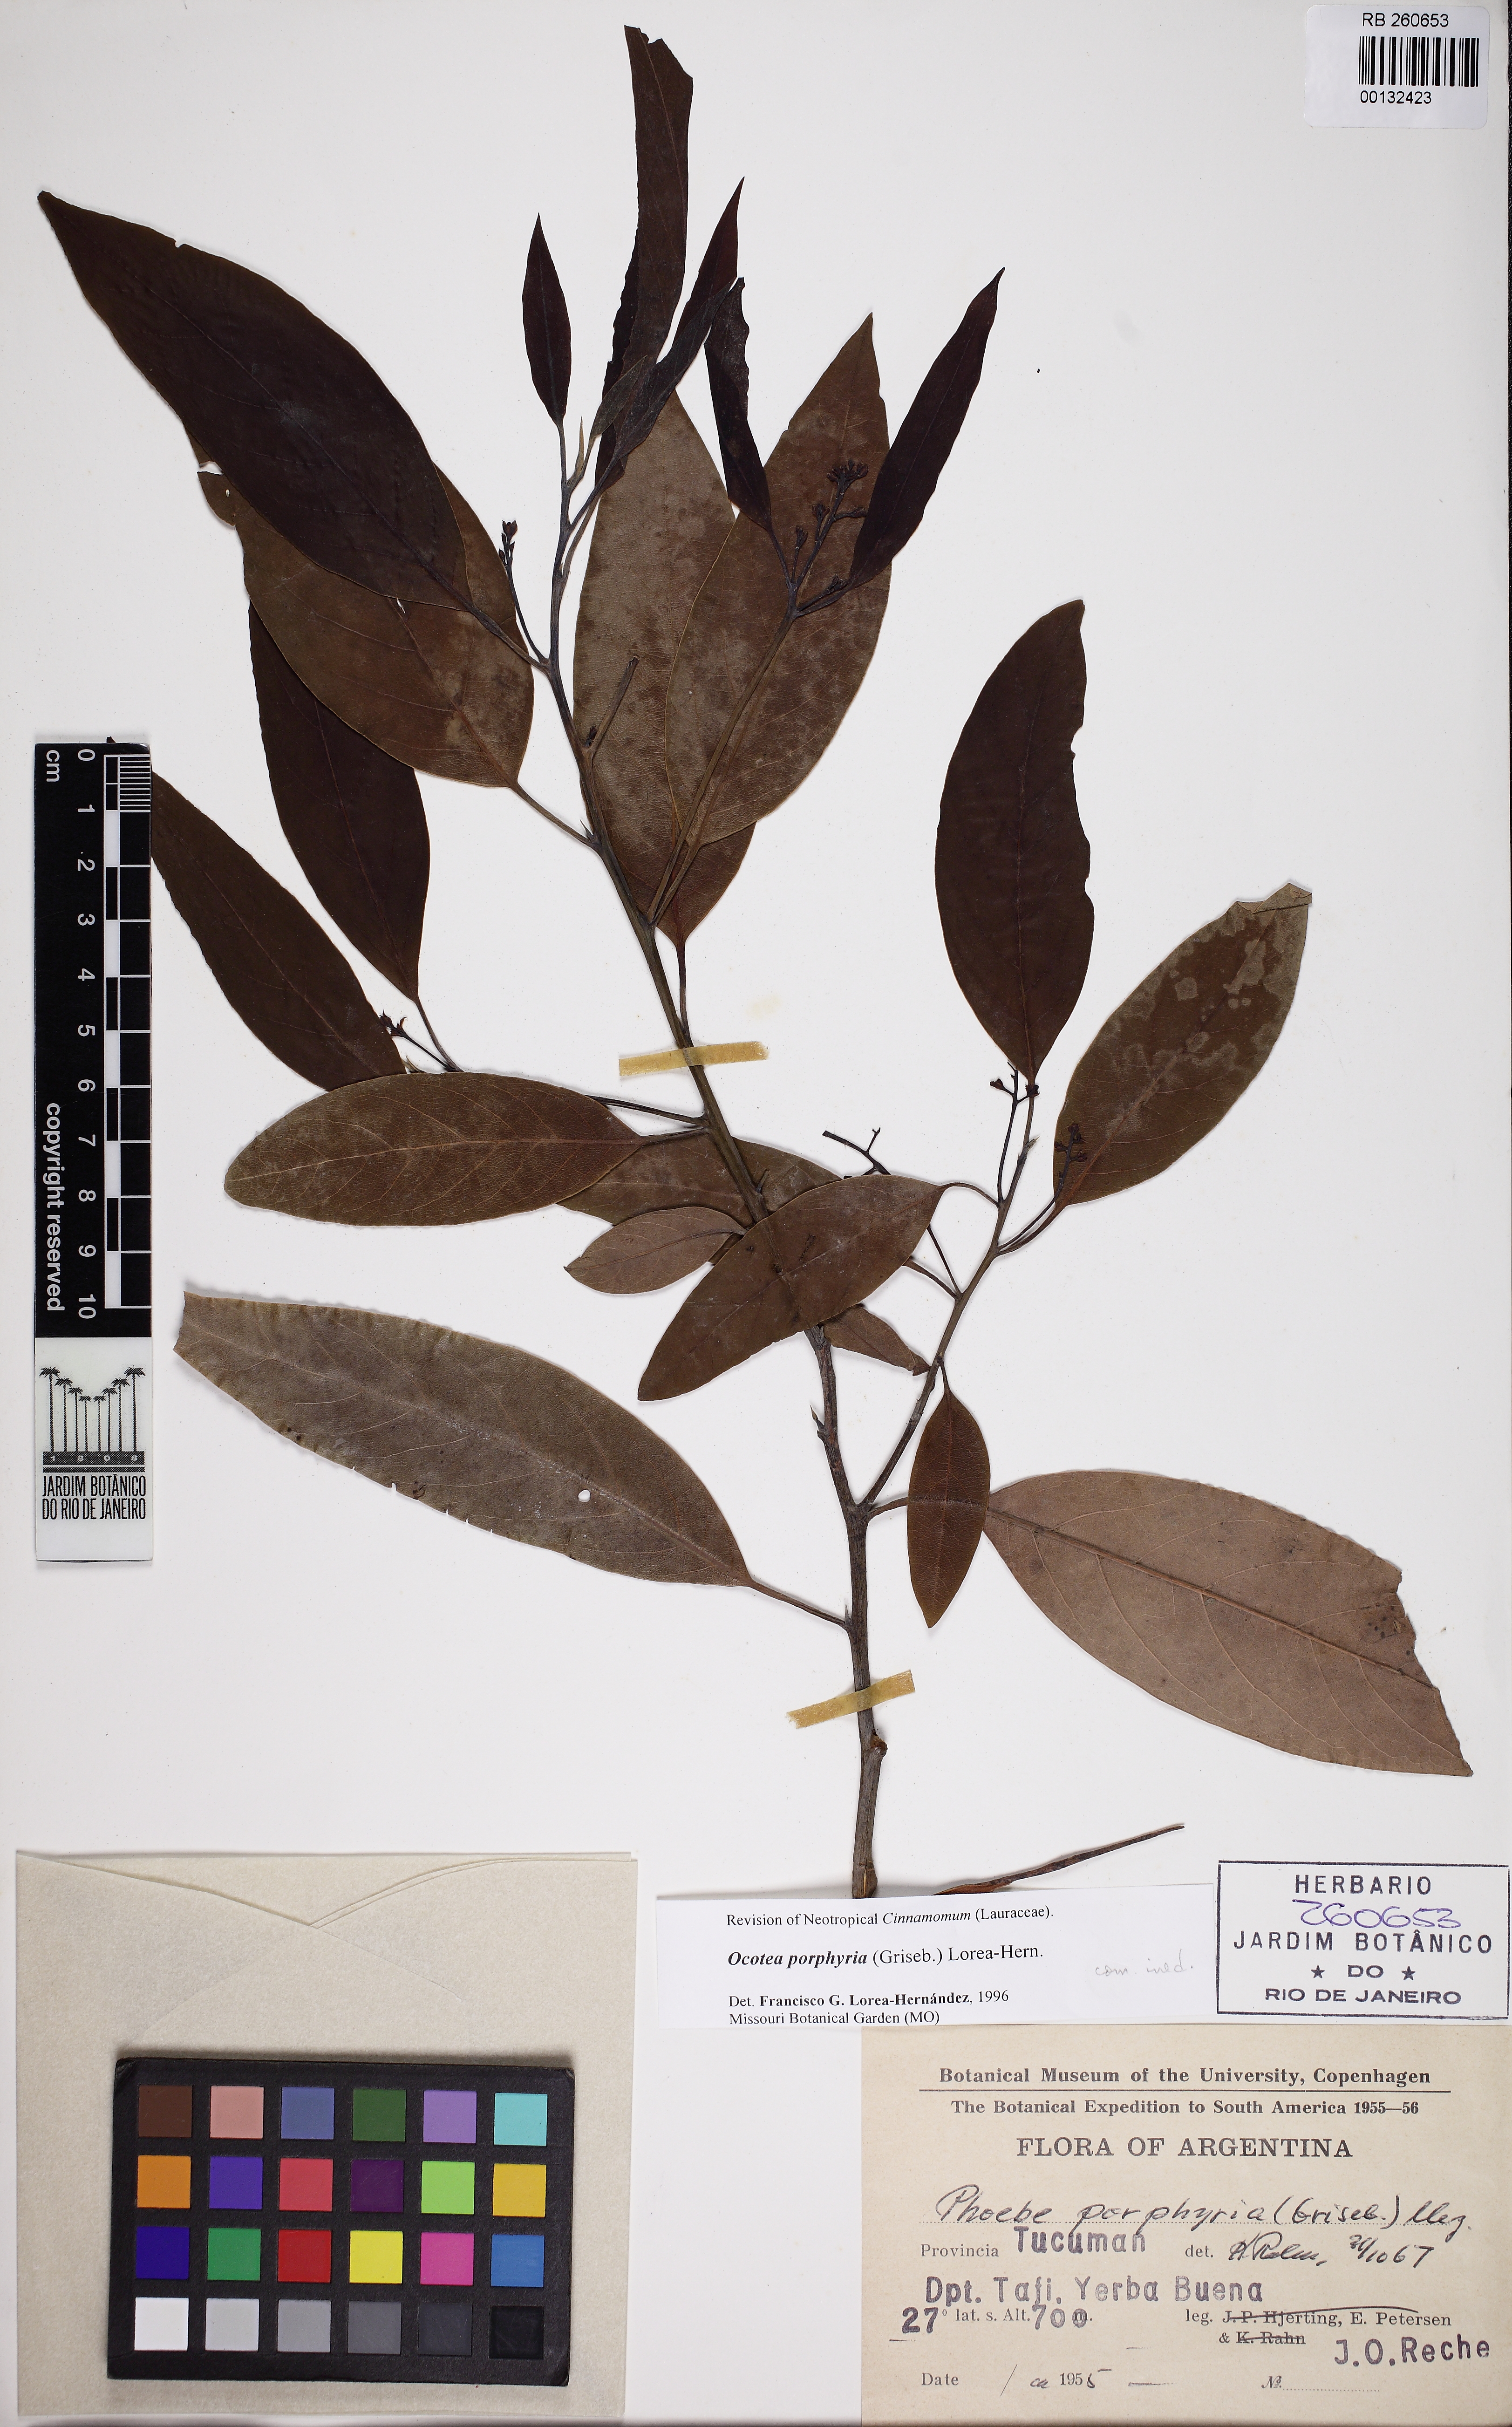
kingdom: Plantae
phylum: Tracheophyta
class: Magnoliopsida
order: Laurales
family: Lauraceae
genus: Ocotea
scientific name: Ocotea porphyria
